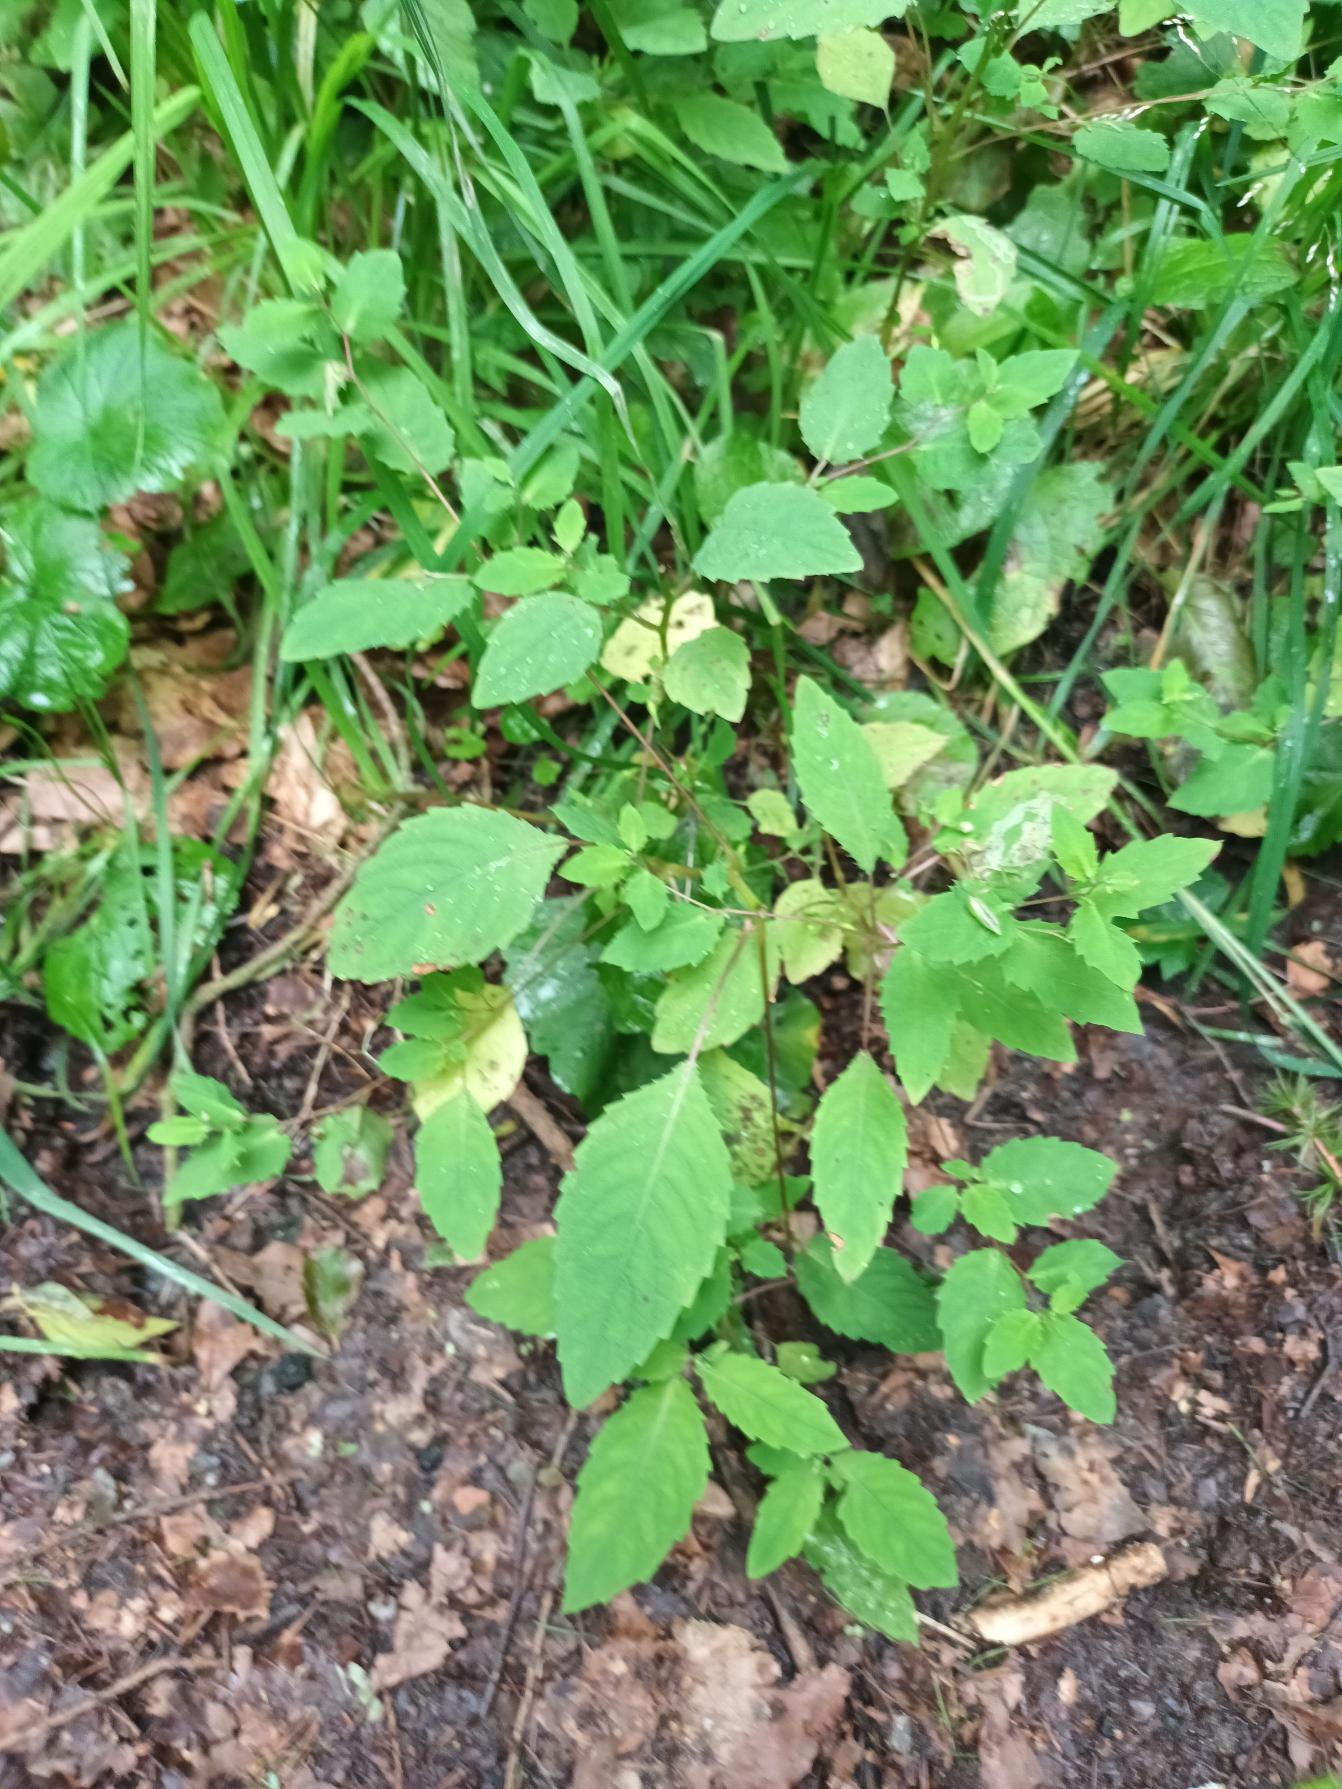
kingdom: Plantae
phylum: Tracheophyta
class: Magnoliopsida
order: Ericales
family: Balsaminaceae
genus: Impatiens
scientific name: Impatiens noli-tangere
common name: Spring-balsamin
